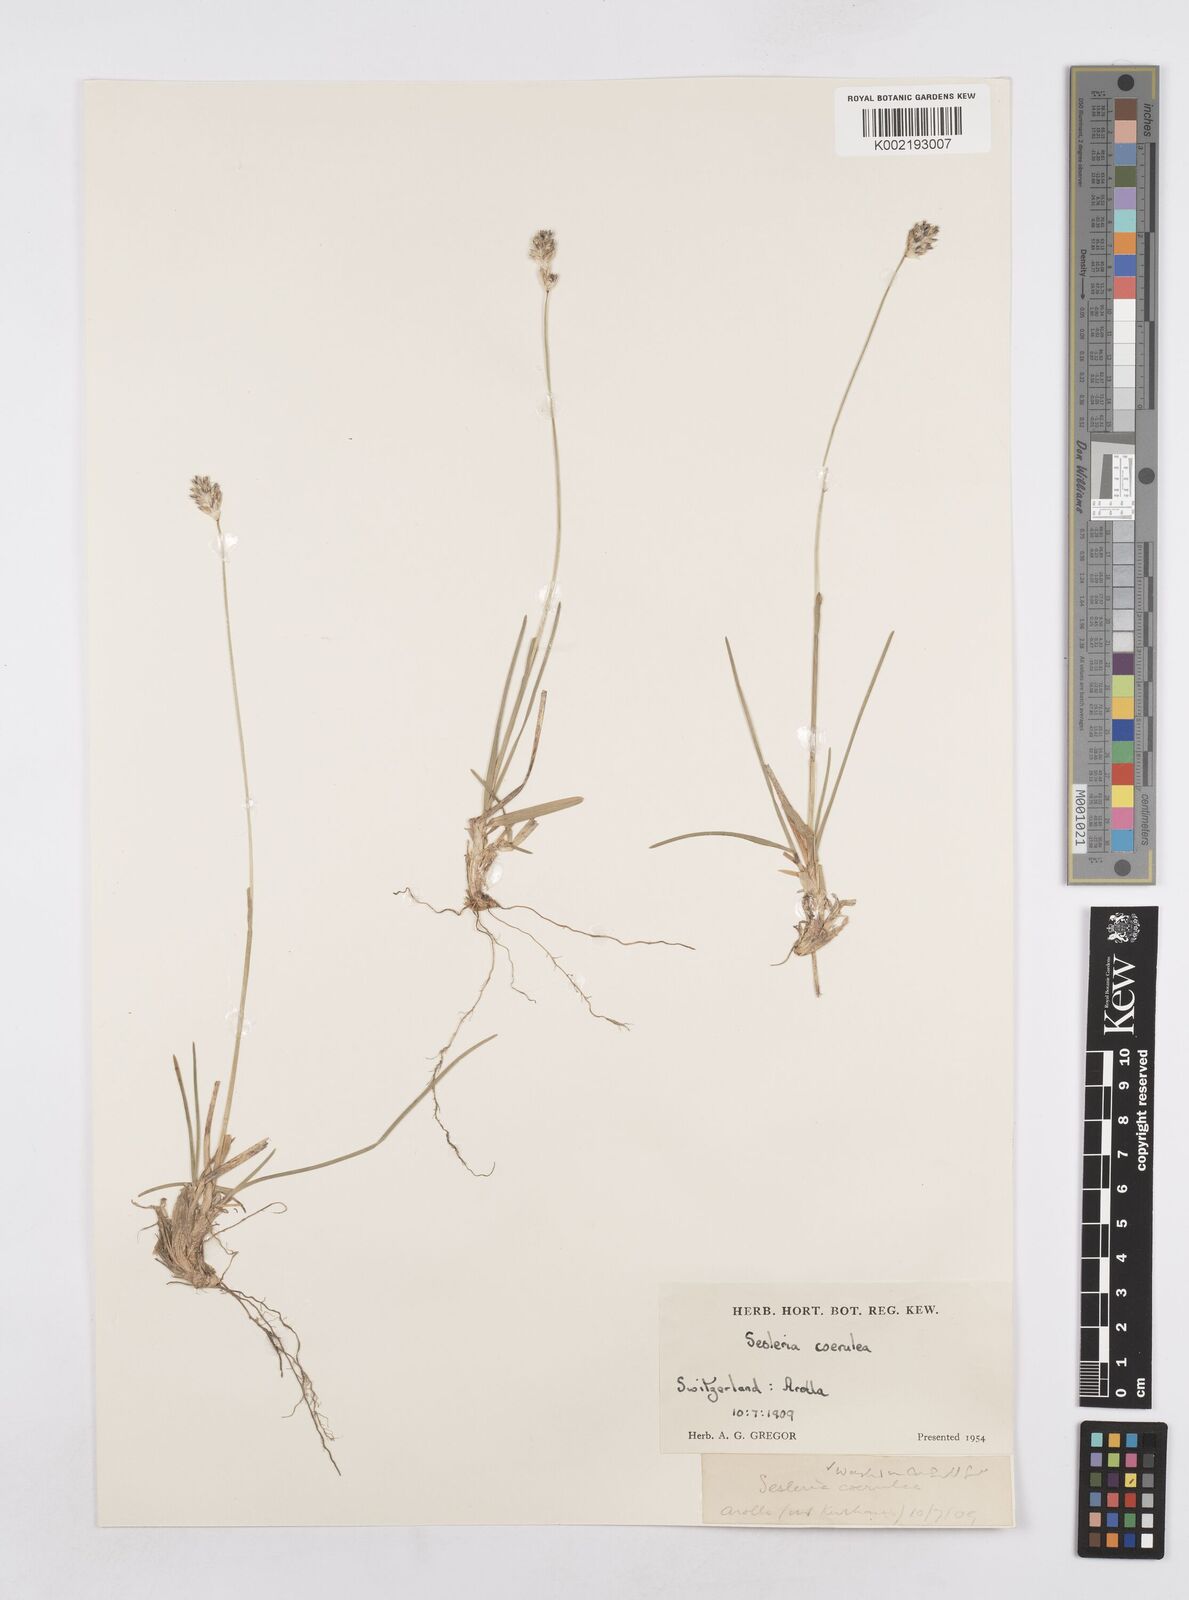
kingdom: Plantae
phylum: Tracheophyta
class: Liliopsida
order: Poales
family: Poaceae
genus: Sesleria
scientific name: Sesleria caerulea
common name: Blue moor-grass
